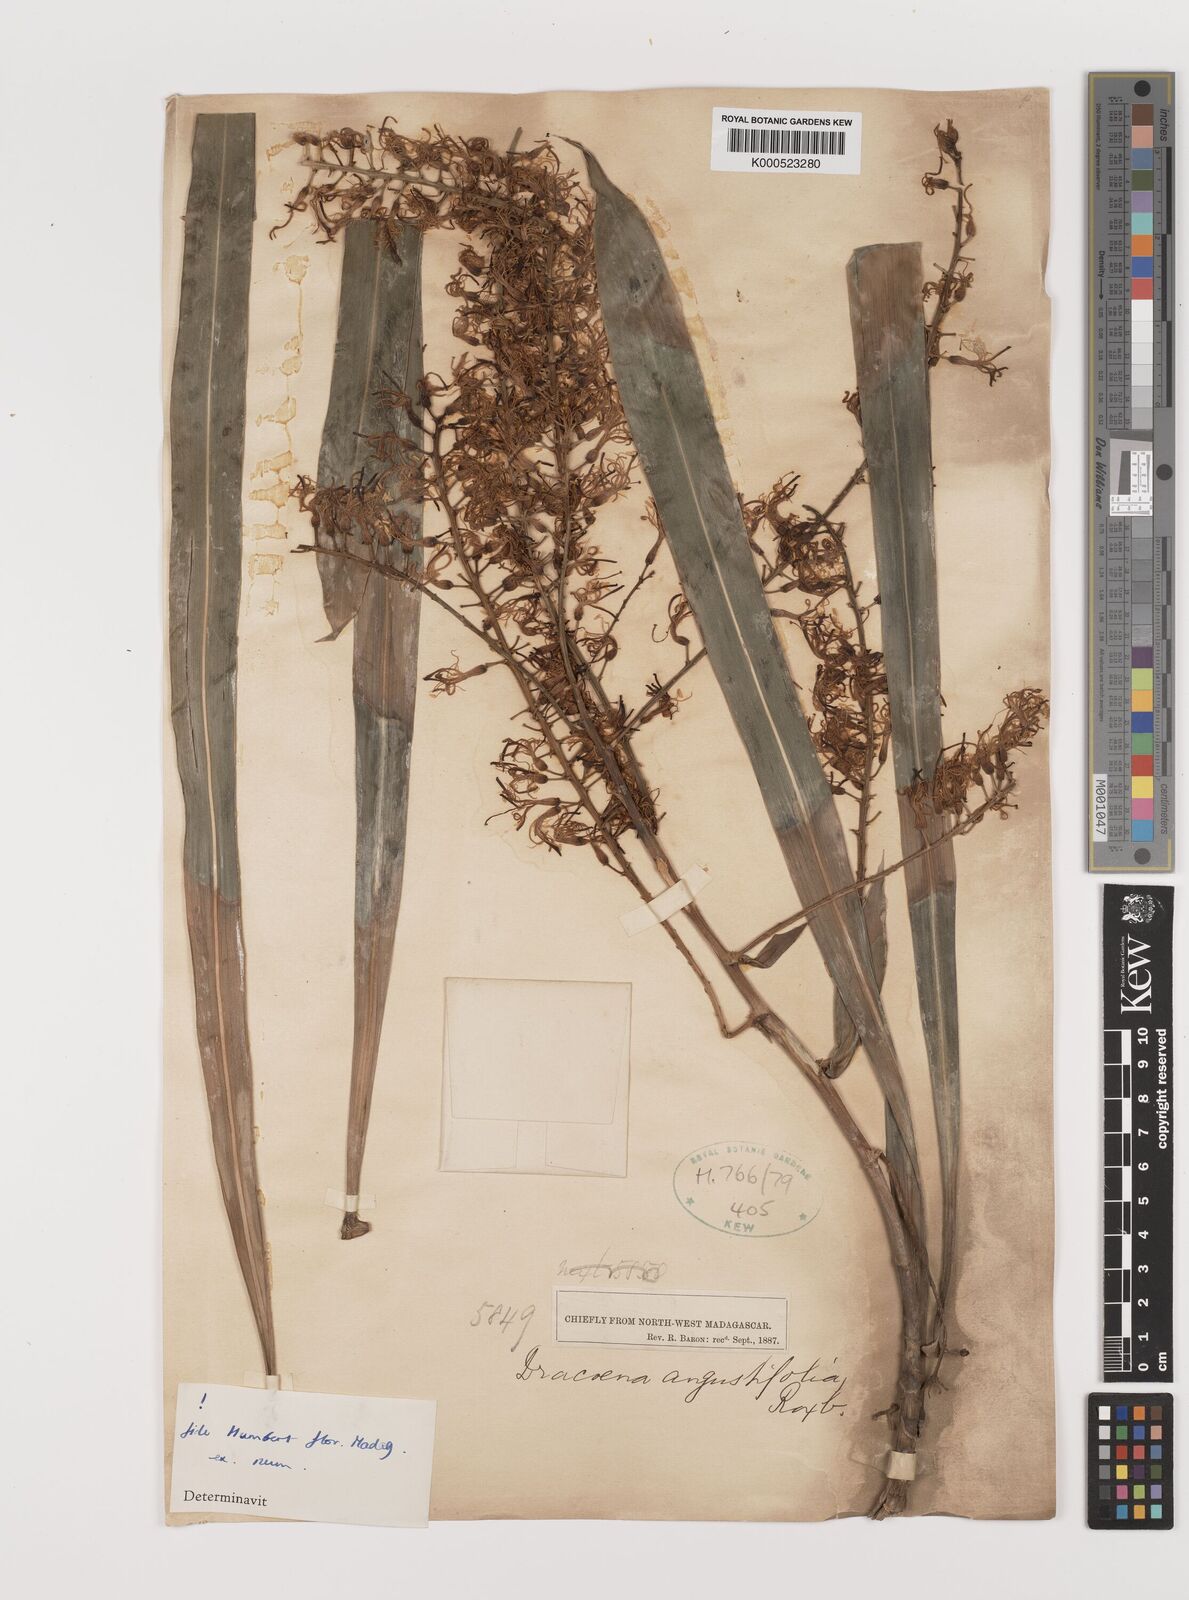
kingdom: Plantae
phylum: Tracheophyta
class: Liliopsida
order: Asparagales
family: Asparagaceae
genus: Dracaena
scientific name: Dracaena angustifolia
